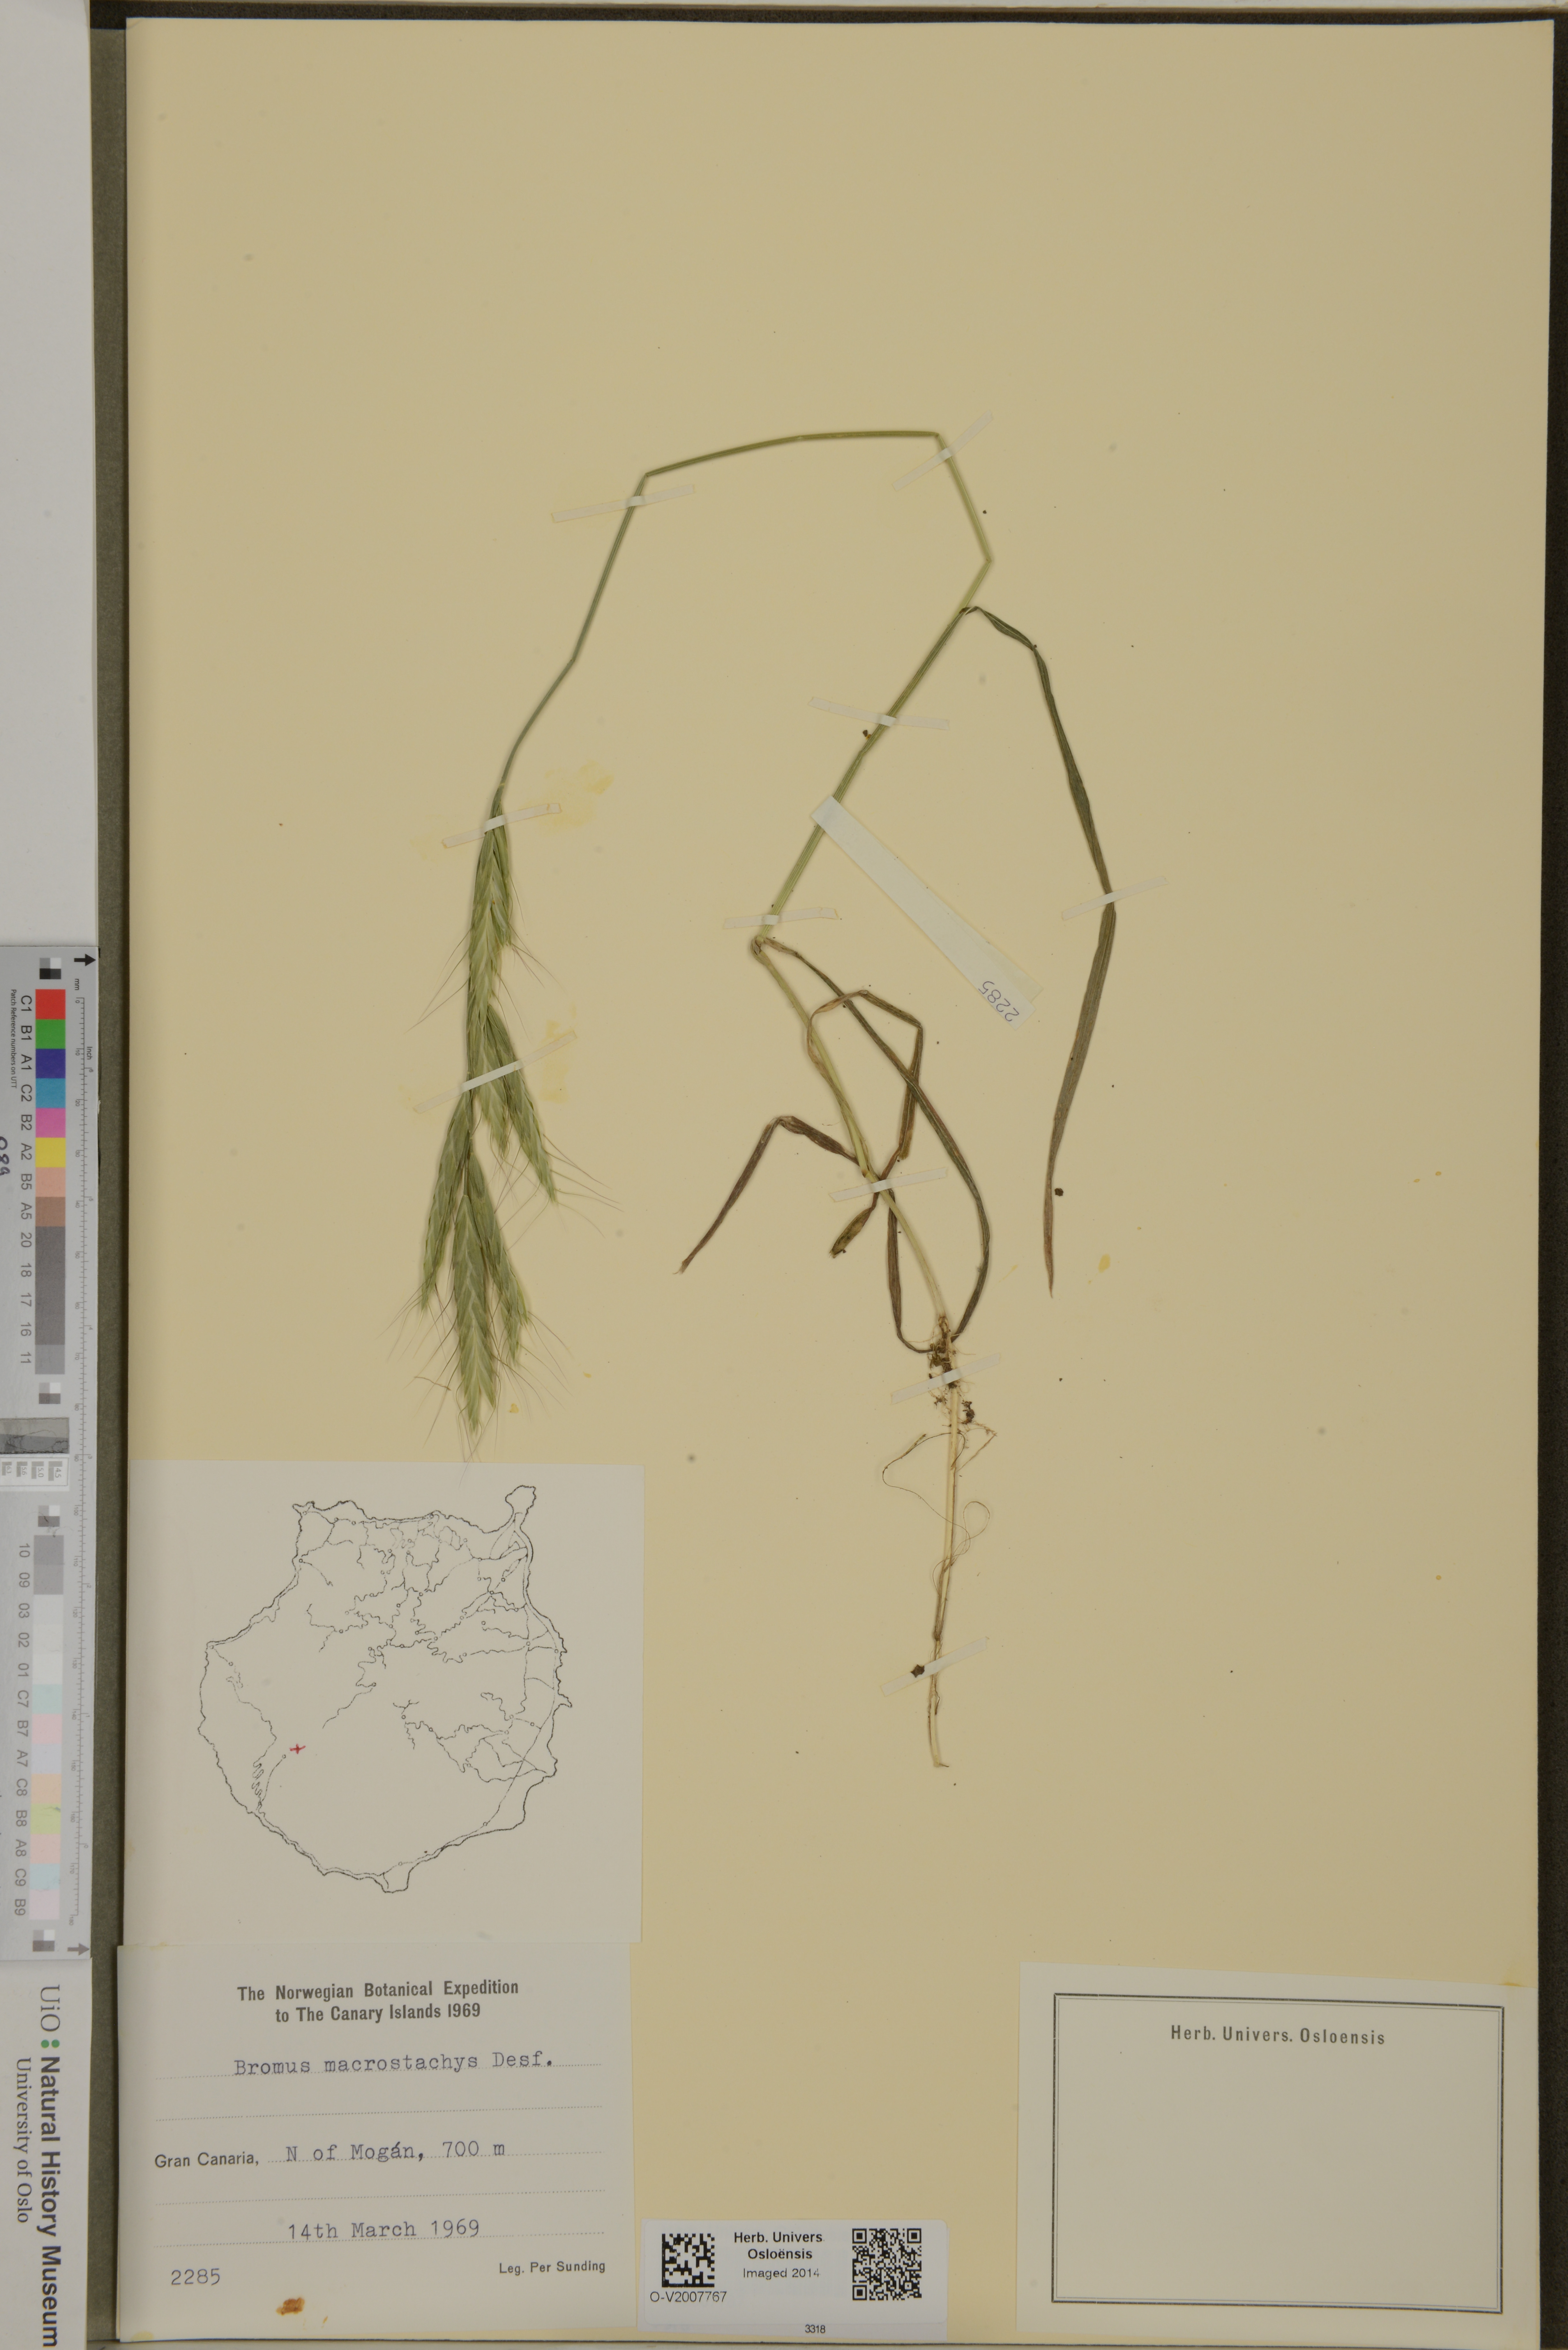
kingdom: Plantae
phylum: Tracheophyta
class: Liliopsida
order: Poales
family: Poaceae
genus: Bromus
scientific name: Bromus lanceolatus
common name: Mediterranean brome
